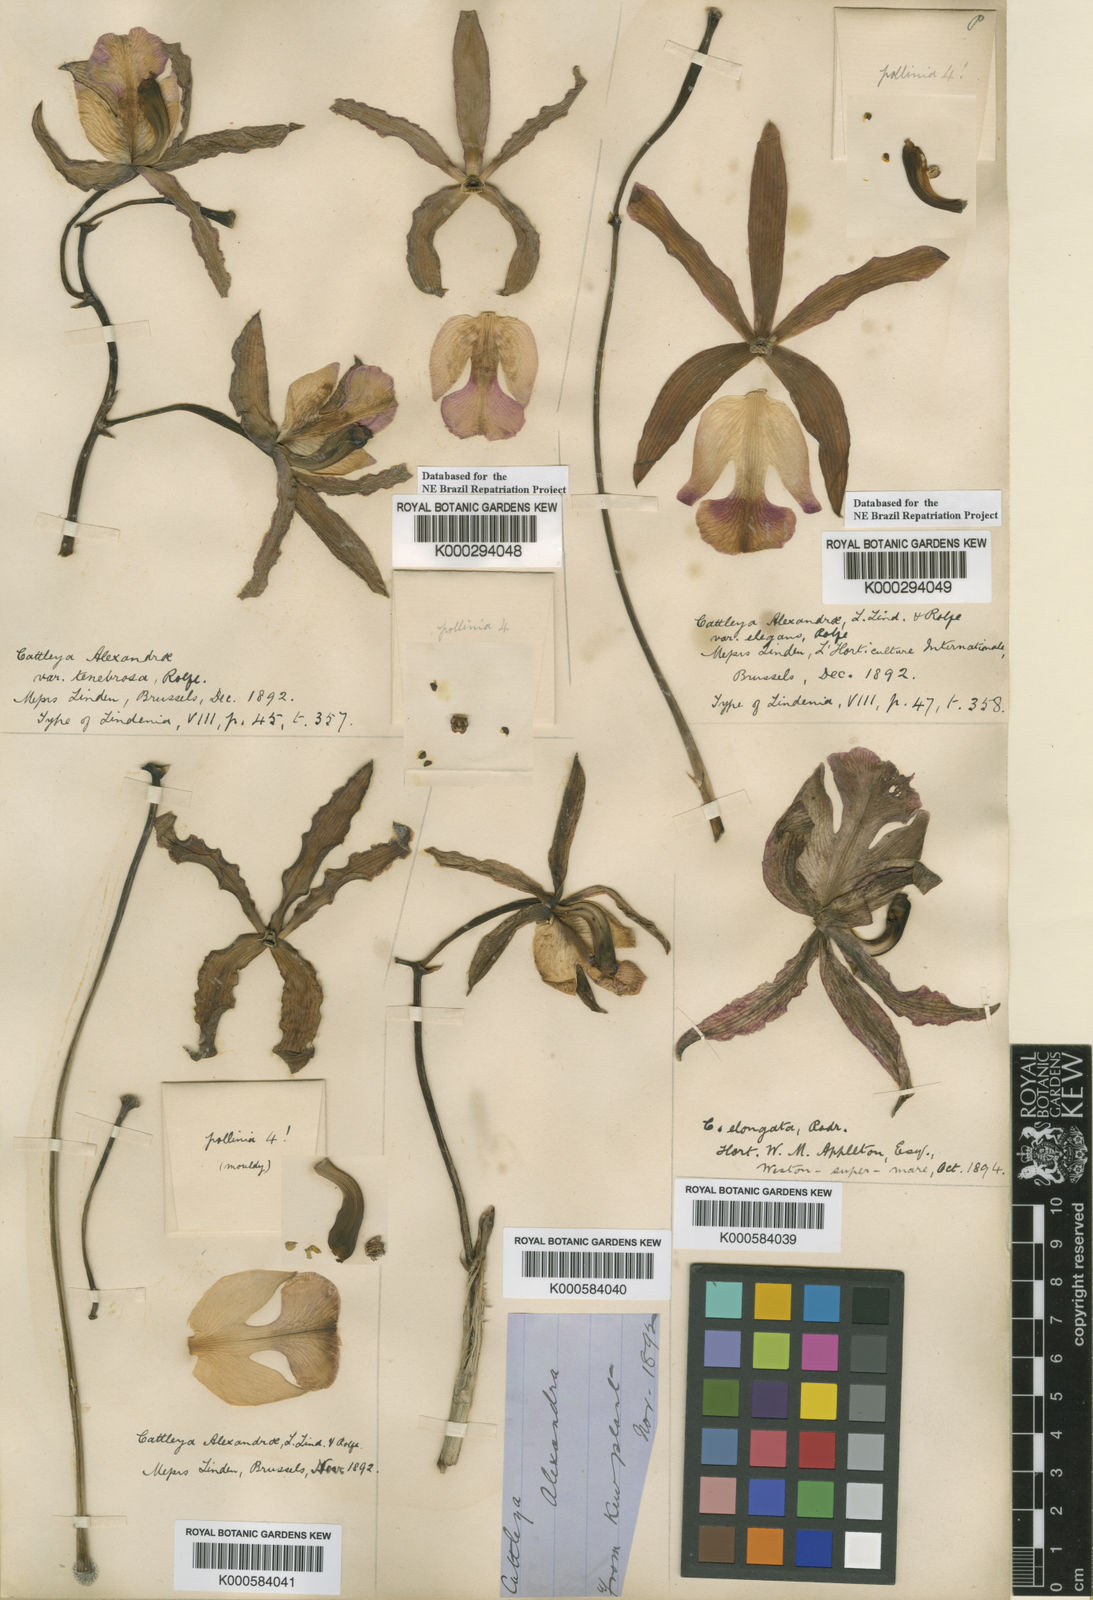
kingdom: Plantae
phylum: Tracheophyta
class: Liliopsida
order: Asparagales
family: Orchidaceae
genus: Cattleya
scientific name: Cattleya elongata
